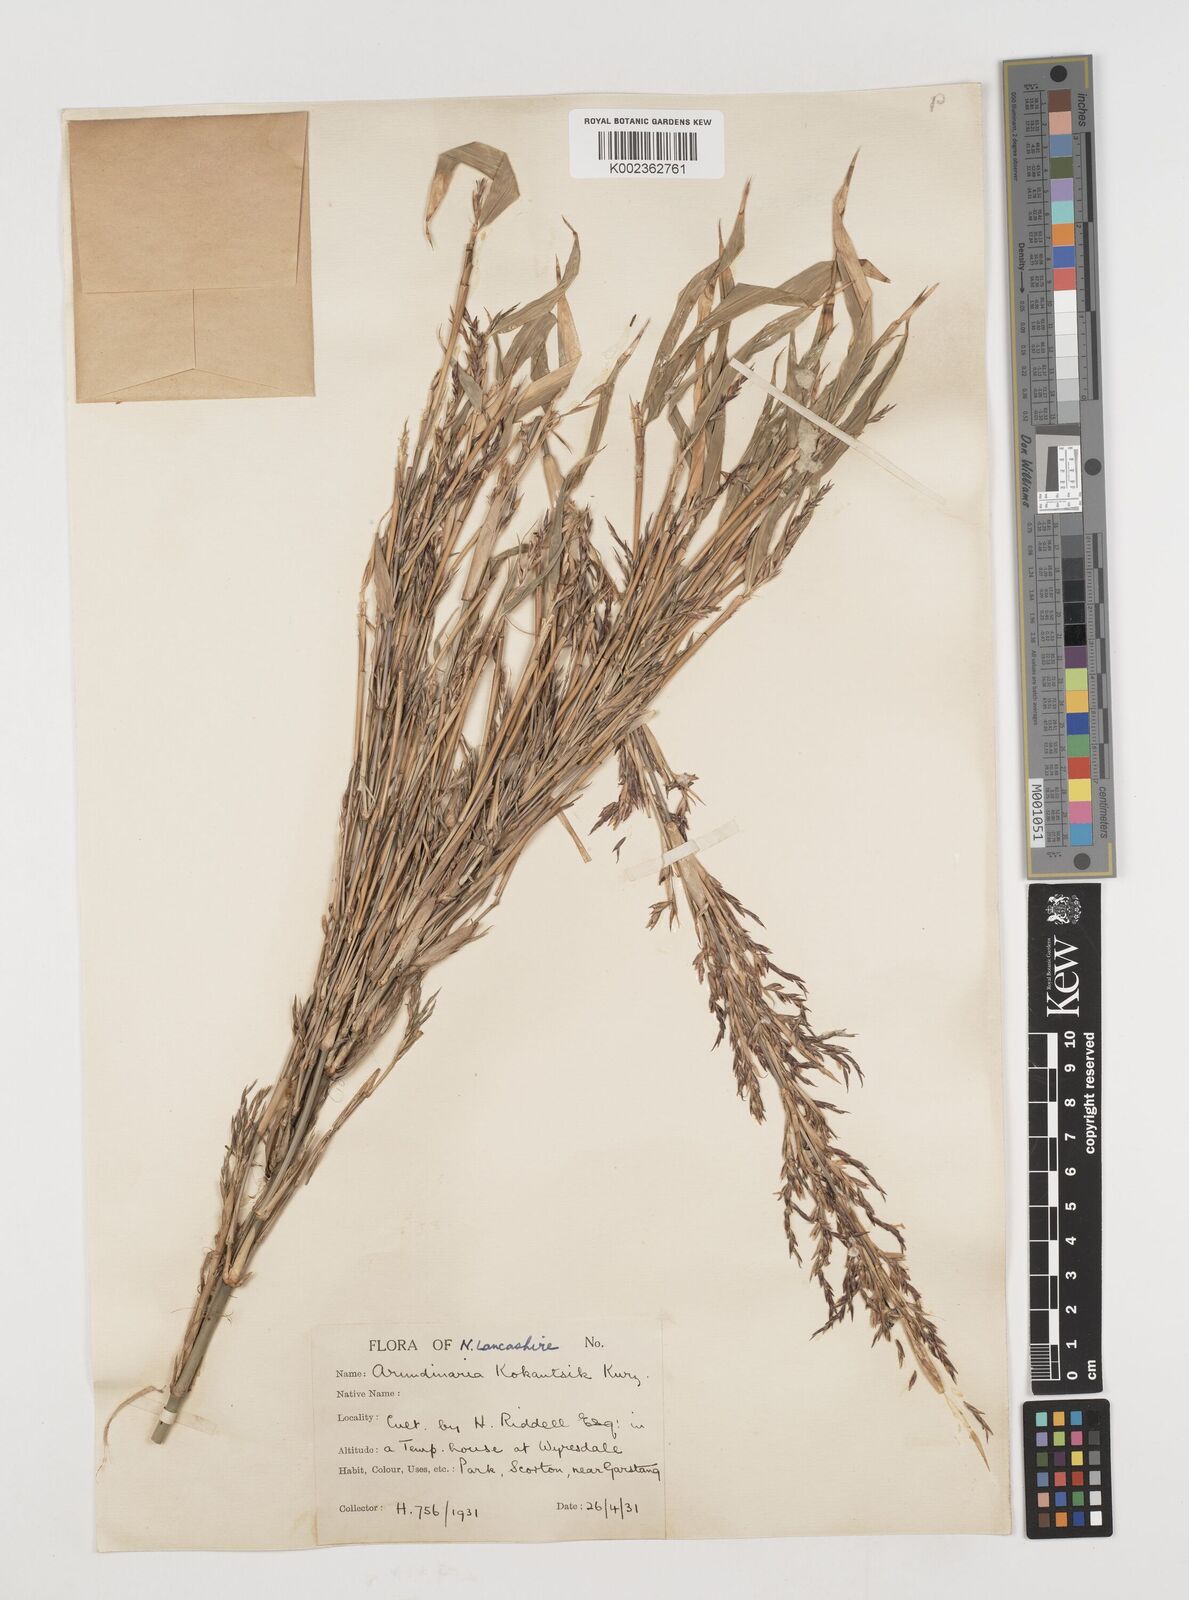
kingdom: Plantae
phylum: Tracheophyta
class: Liliopsida
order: Poales
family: Poaceae
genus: Chimonobambusa
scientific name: Chimonobambusa marmorea
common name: Marbled bamboo
